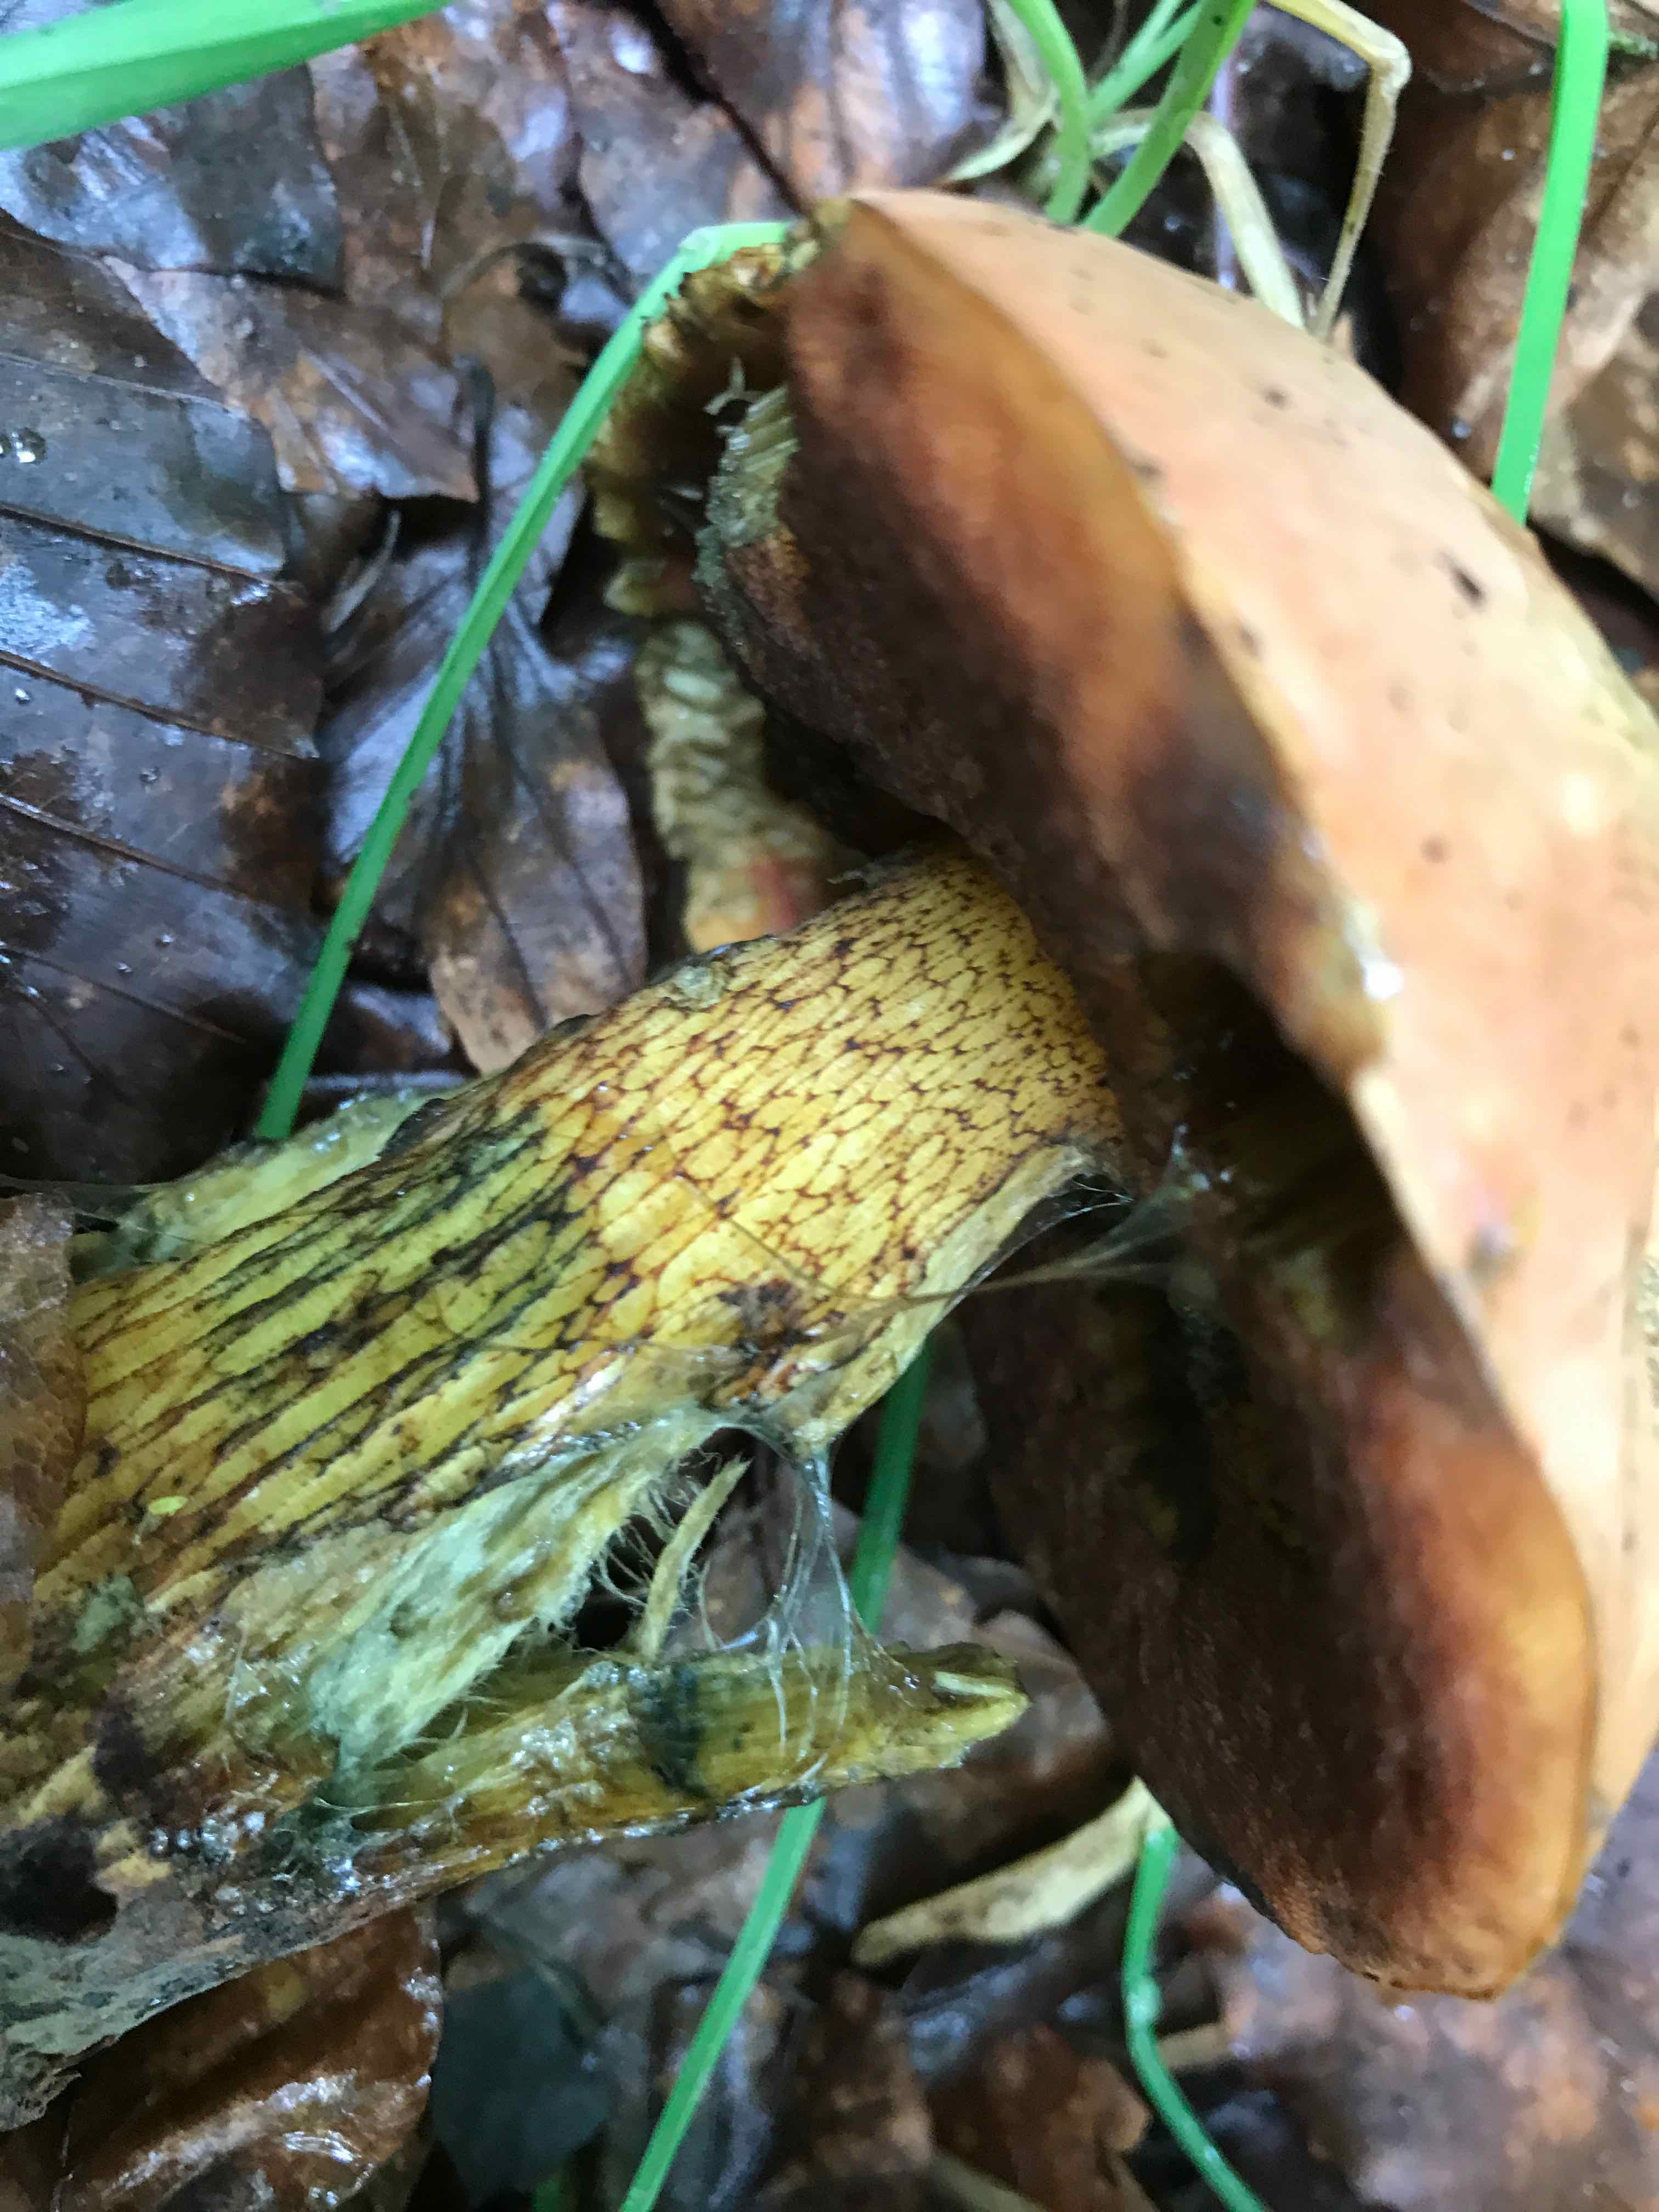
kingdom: Fungi
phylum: Basidiomycota
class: Agaricomycetes
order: Boletales
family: Boletaceae
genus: Suillellus
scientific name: Suillellus luridus
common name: netstokket indigorørhat
